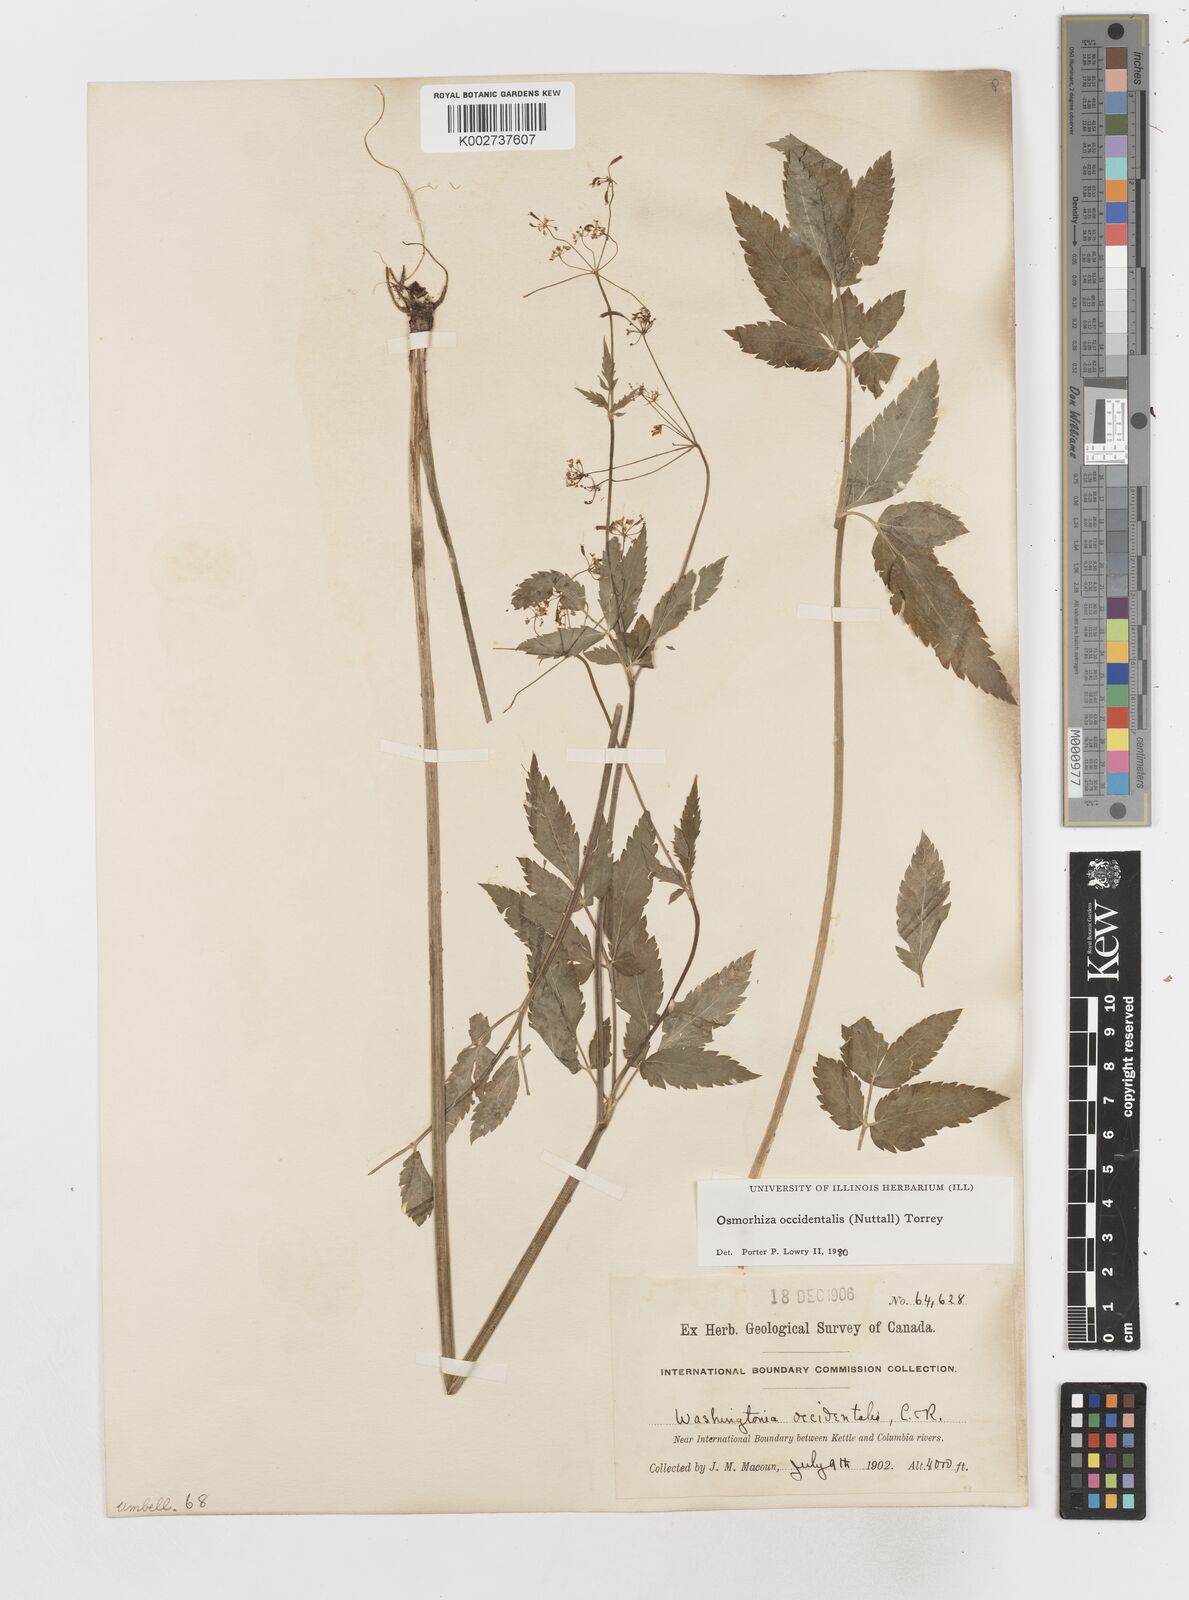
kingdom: Plantae
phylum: Tracheophyta
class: Magnoliopsida
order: Apiales
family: Apiaceae
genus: Osmorhiza
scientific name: Osmorhiza occidentalis
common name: Western sweet cicely
